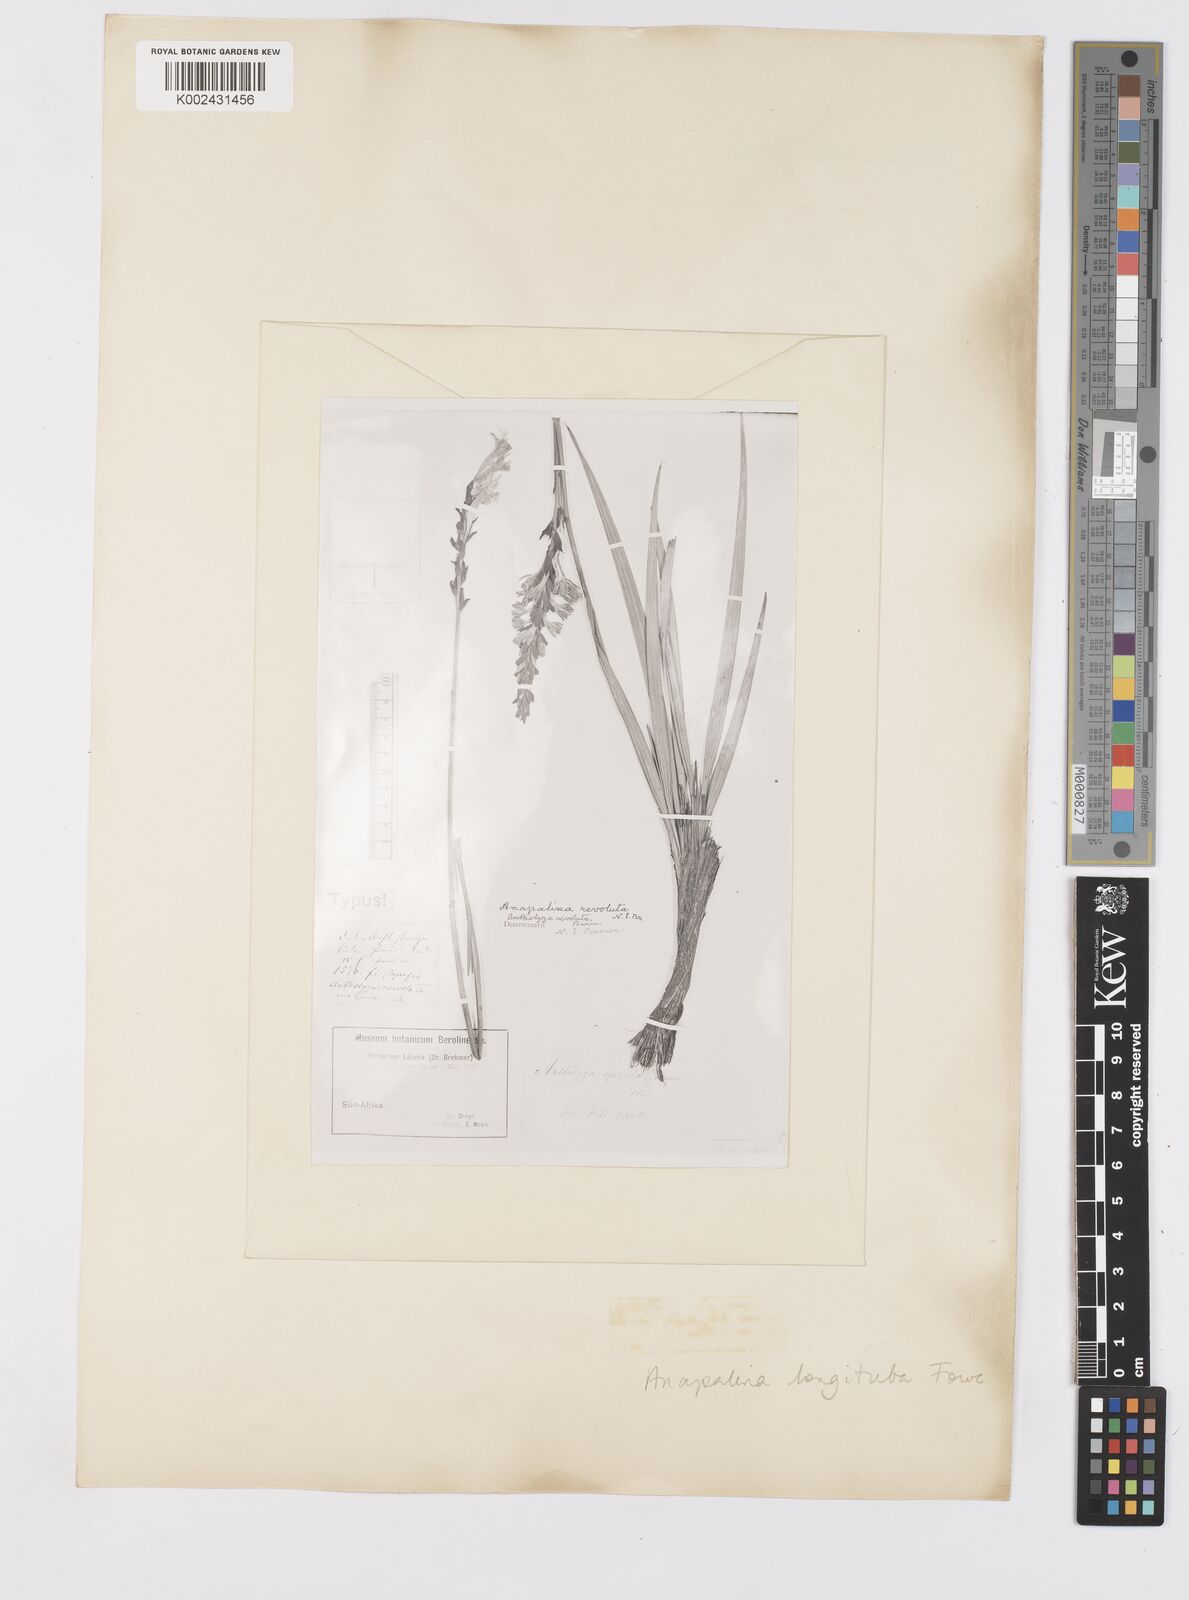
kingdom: Plantae
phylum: Tracheophyta
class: Liliopsida
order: Asparagales
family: Iridaceae
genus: Tritoniopsis
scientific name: Tritoniopsis antholyza
